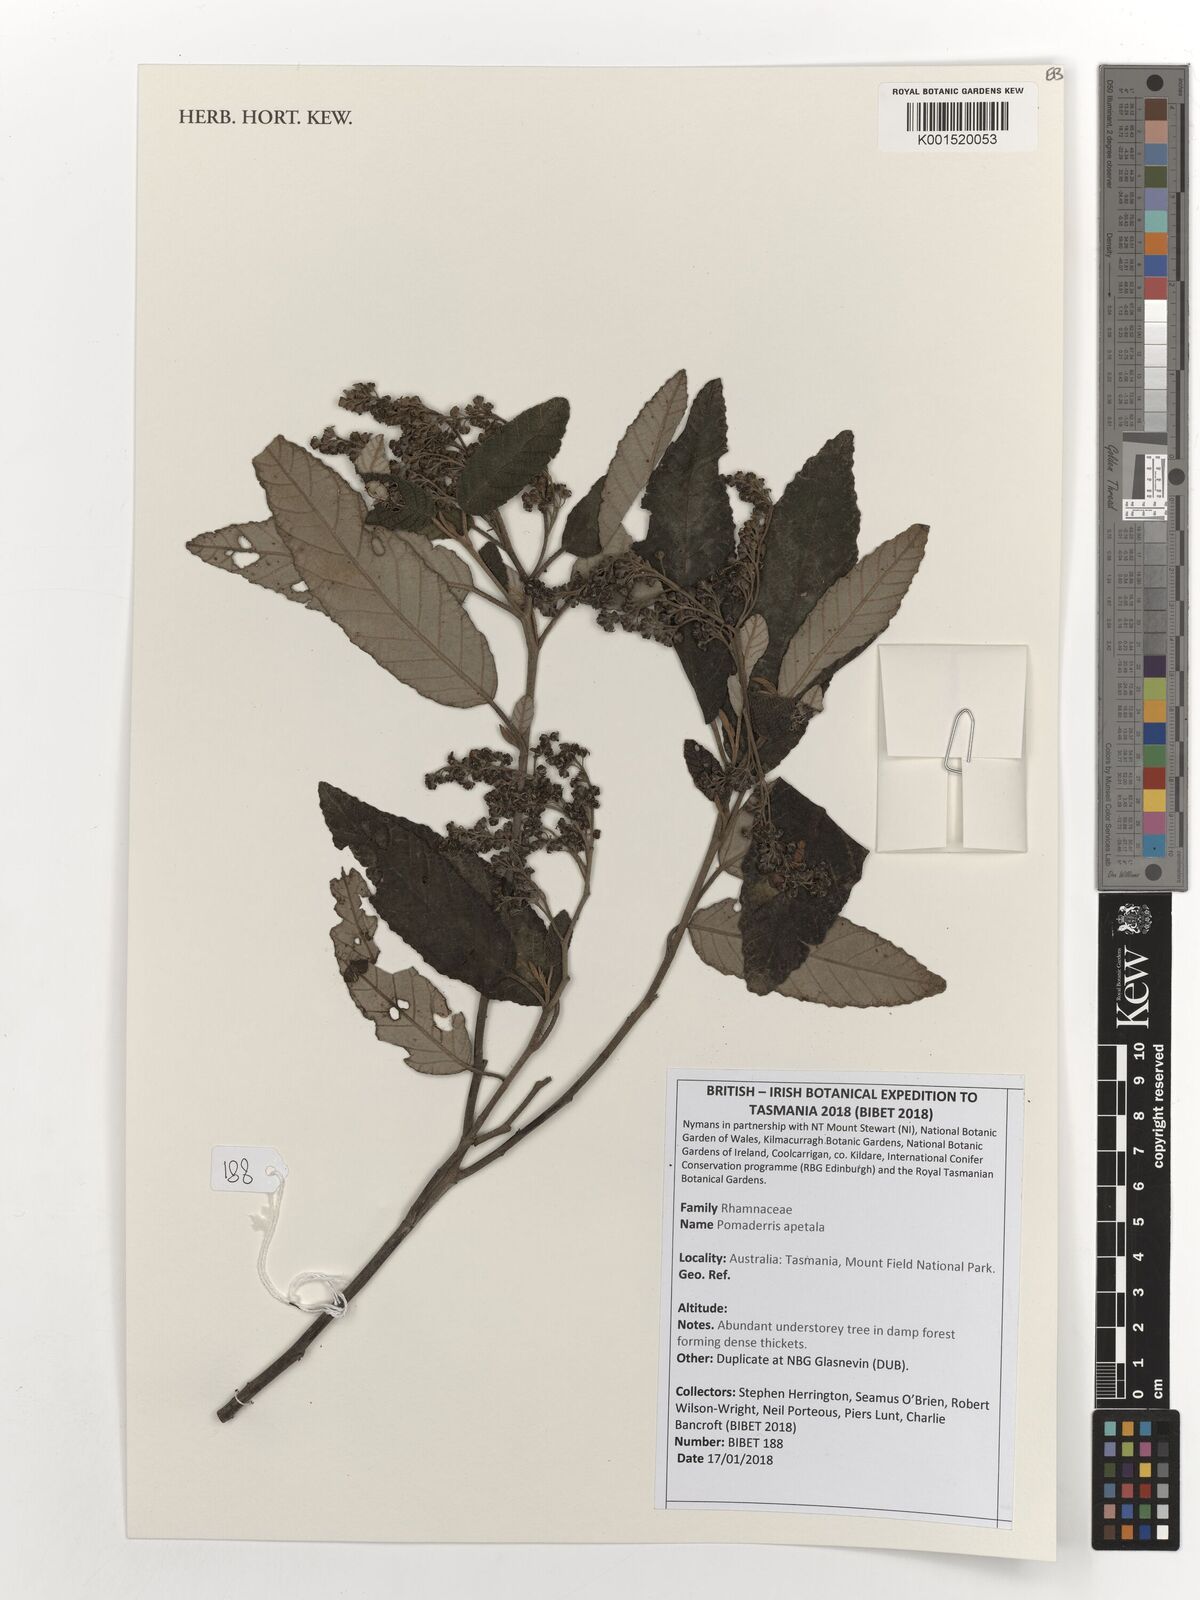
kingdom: Plantae
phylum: Tracheophyta
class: Magnoliopsida
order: Rosales
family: Rhamnaceae
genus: Pomaderris
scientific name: Pomaderris apetala
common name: Hazel pomaderris
